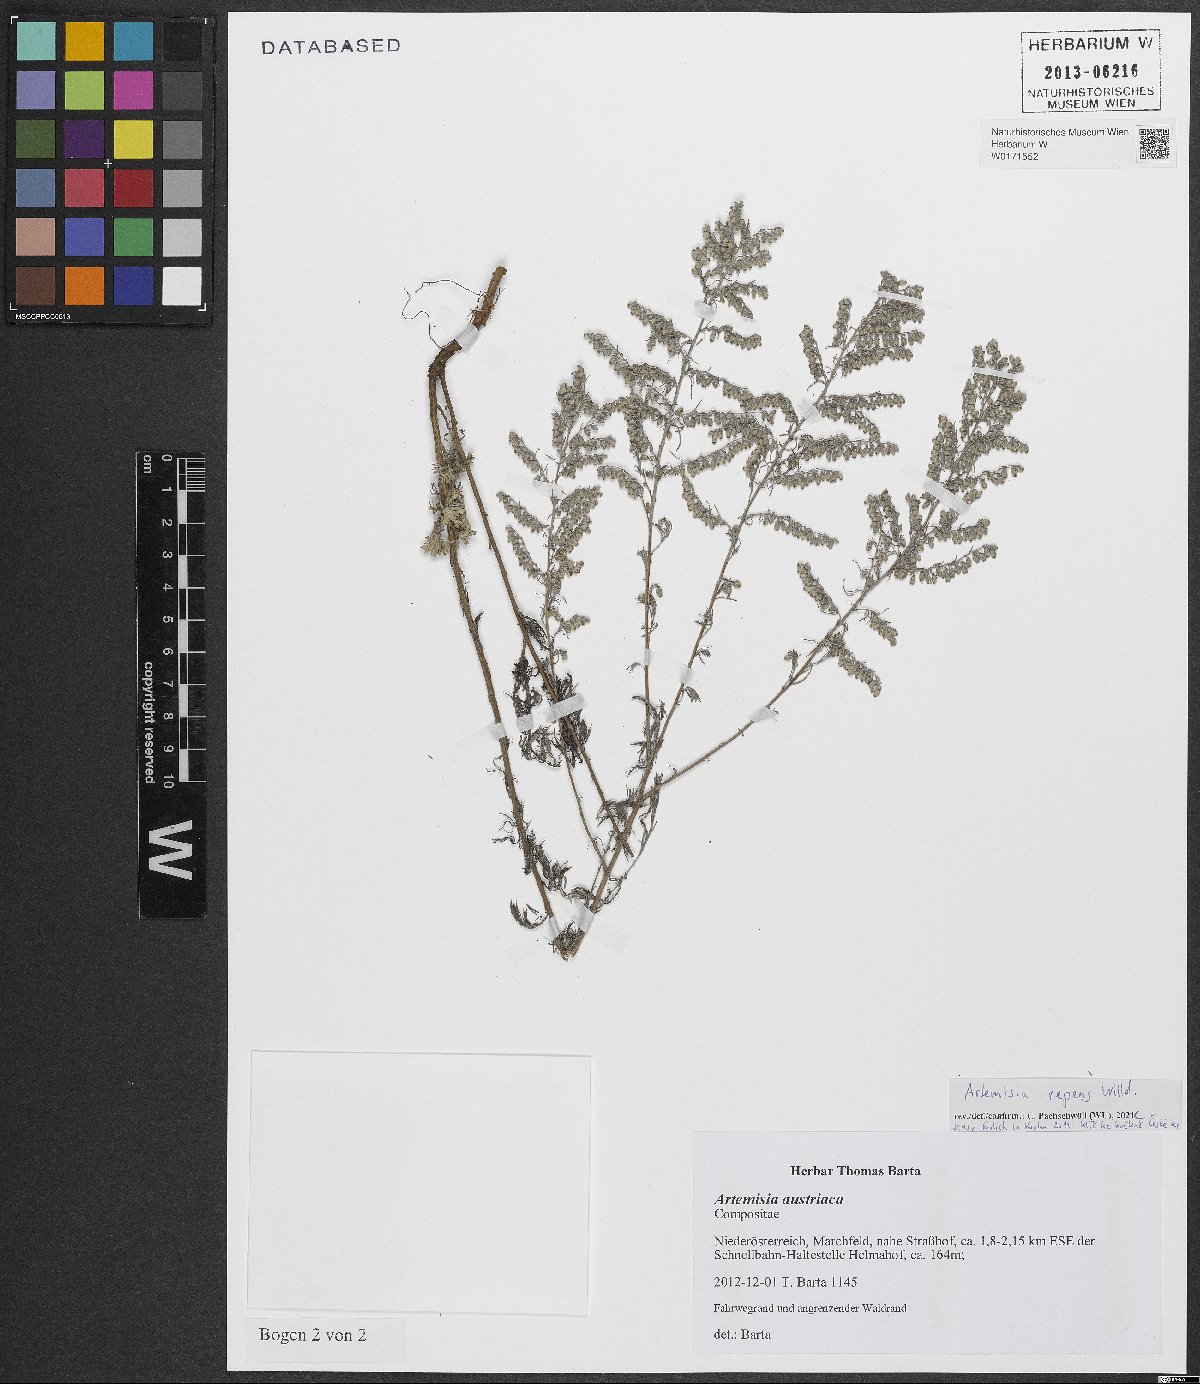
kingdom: Plantae
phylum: Tracheophyta
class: Magnoliopsida
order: Asterales
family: Asteraceae
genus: Artemisia
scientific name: Artemisia repens
